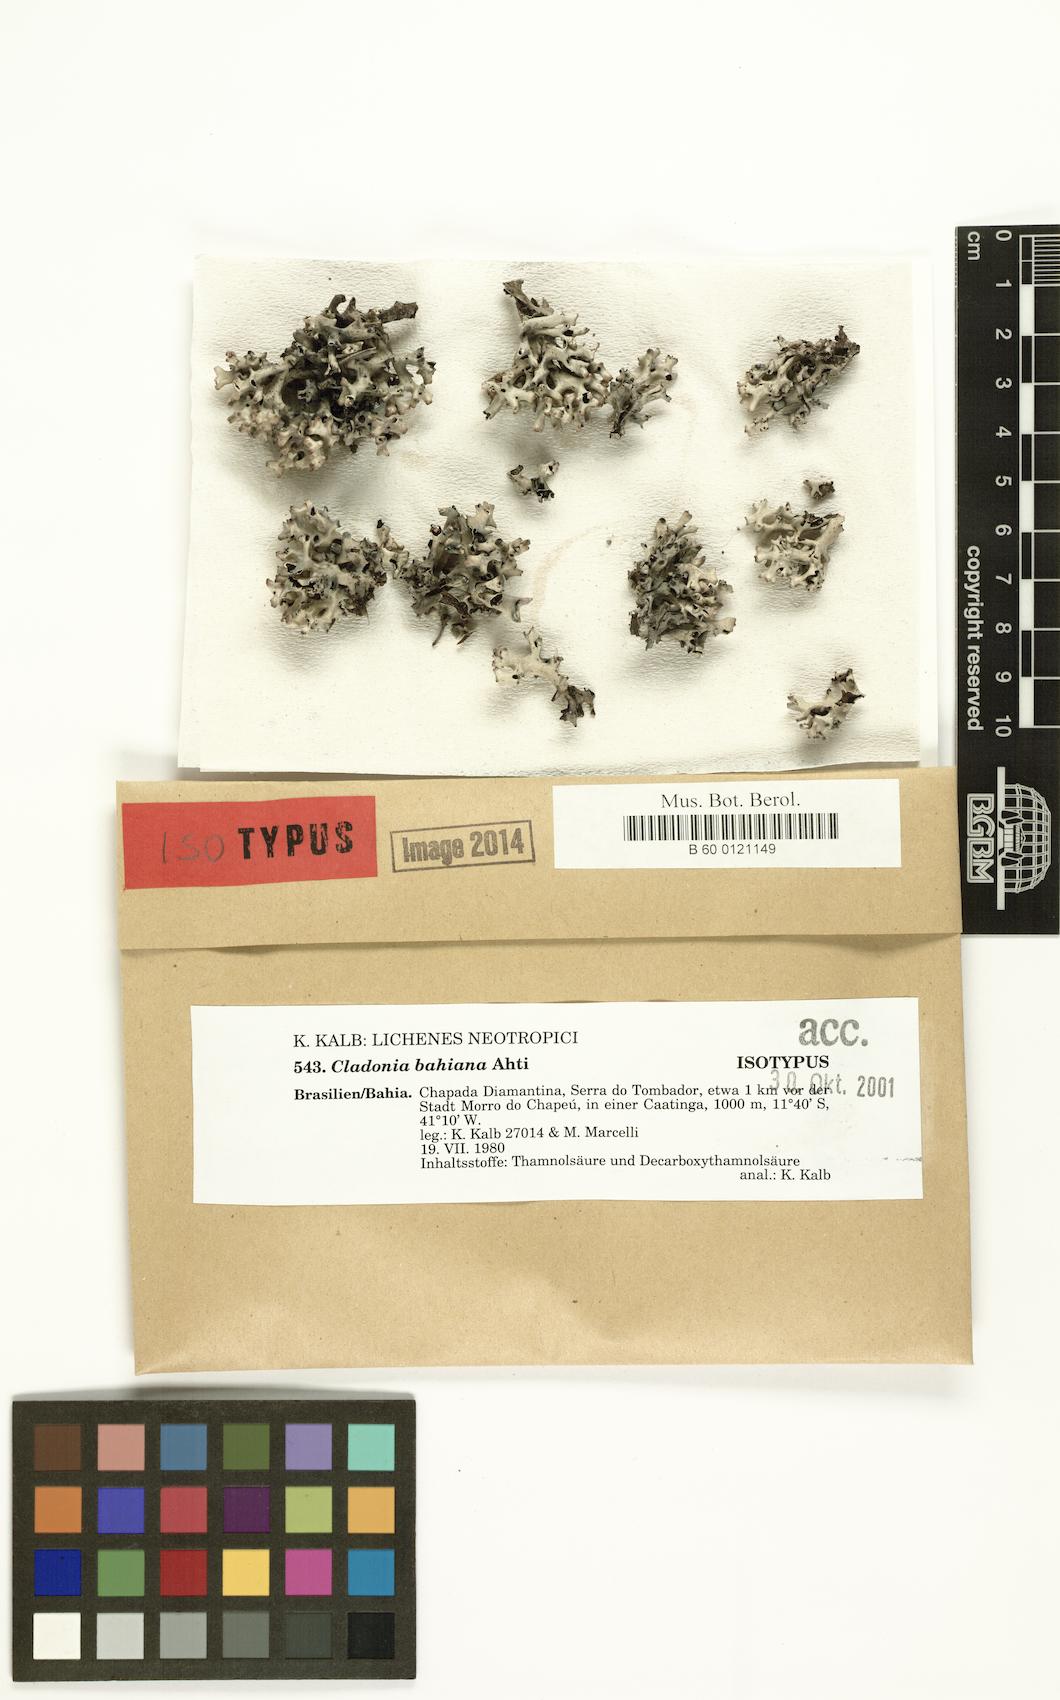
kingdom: Fungi
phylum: Ascomycota
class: Lecanoromycetes
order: Lecanorales
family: Cladoniaceae
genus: Cladonia
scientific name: Cladonia bahiana
